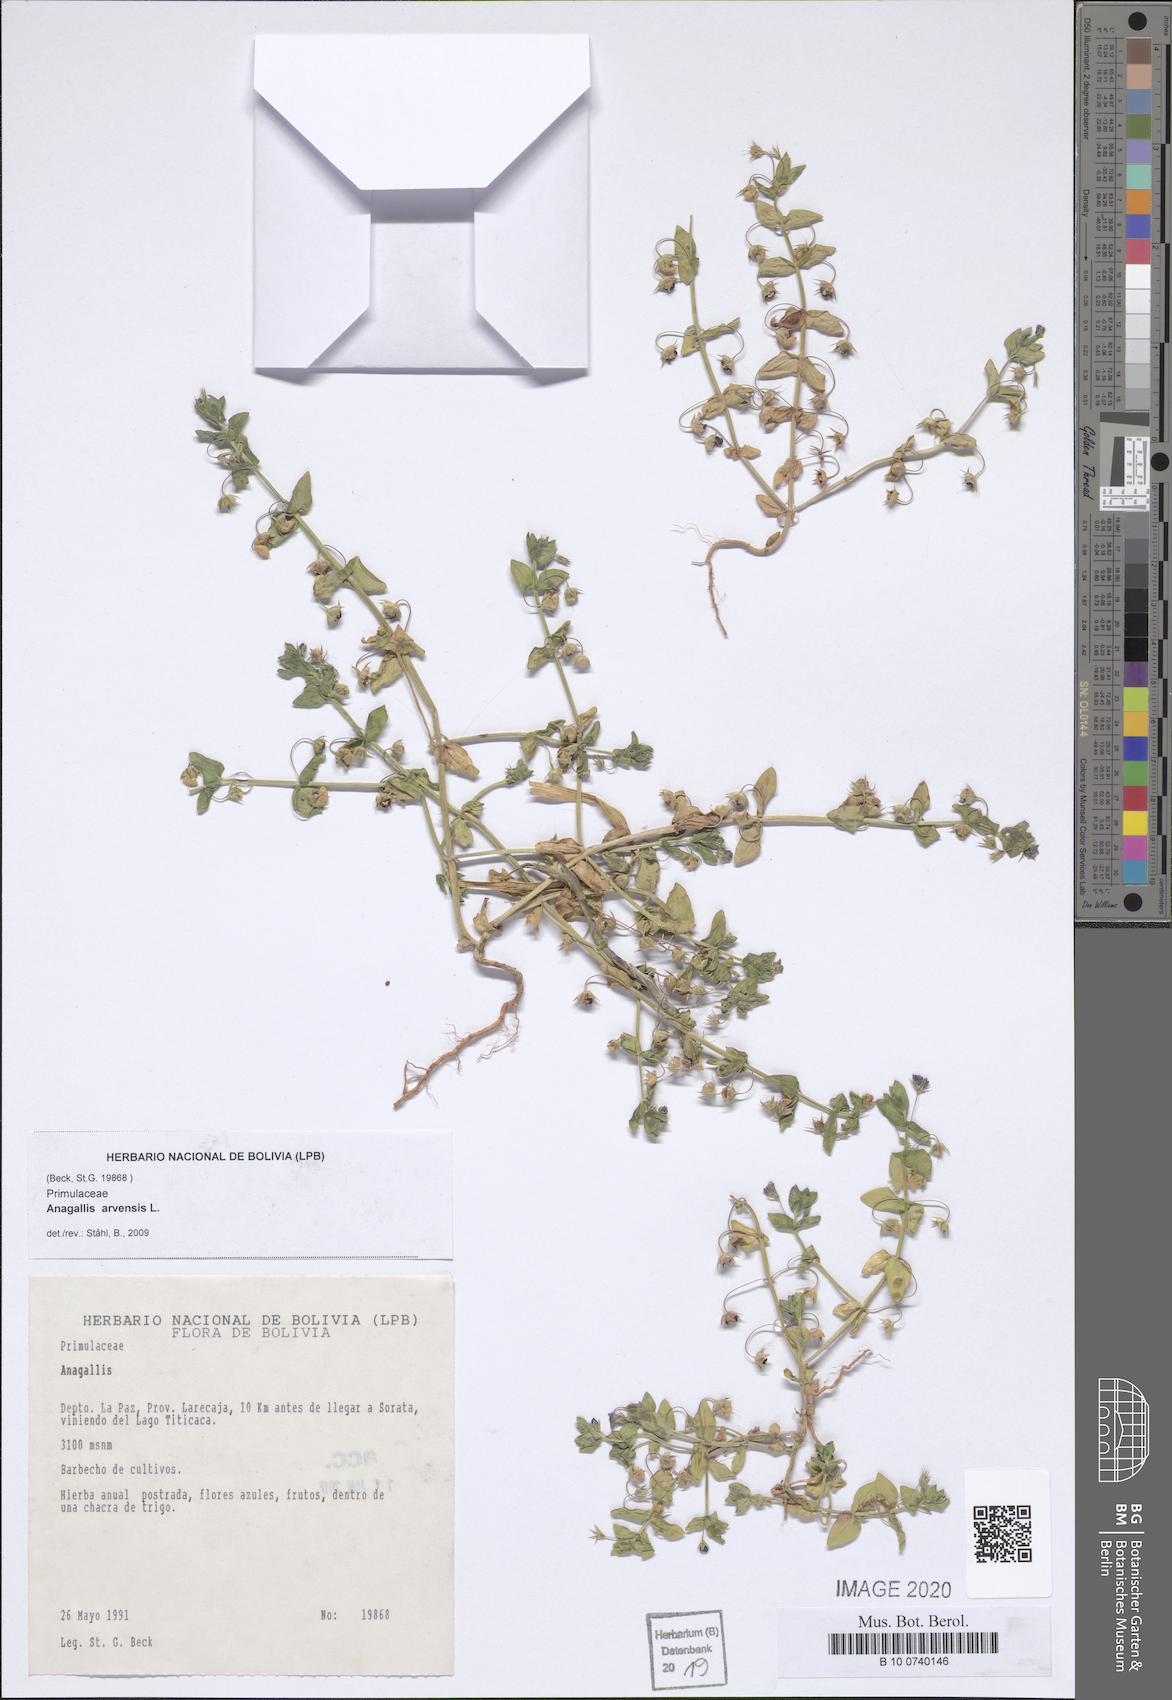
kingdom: Plantae
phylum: Tracheophyta
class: Magnoliopsida
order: Ericales
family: Primulaceae
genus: Lysimachia
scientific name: Lysimachia arvensis
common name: Scarlet pimpernel
